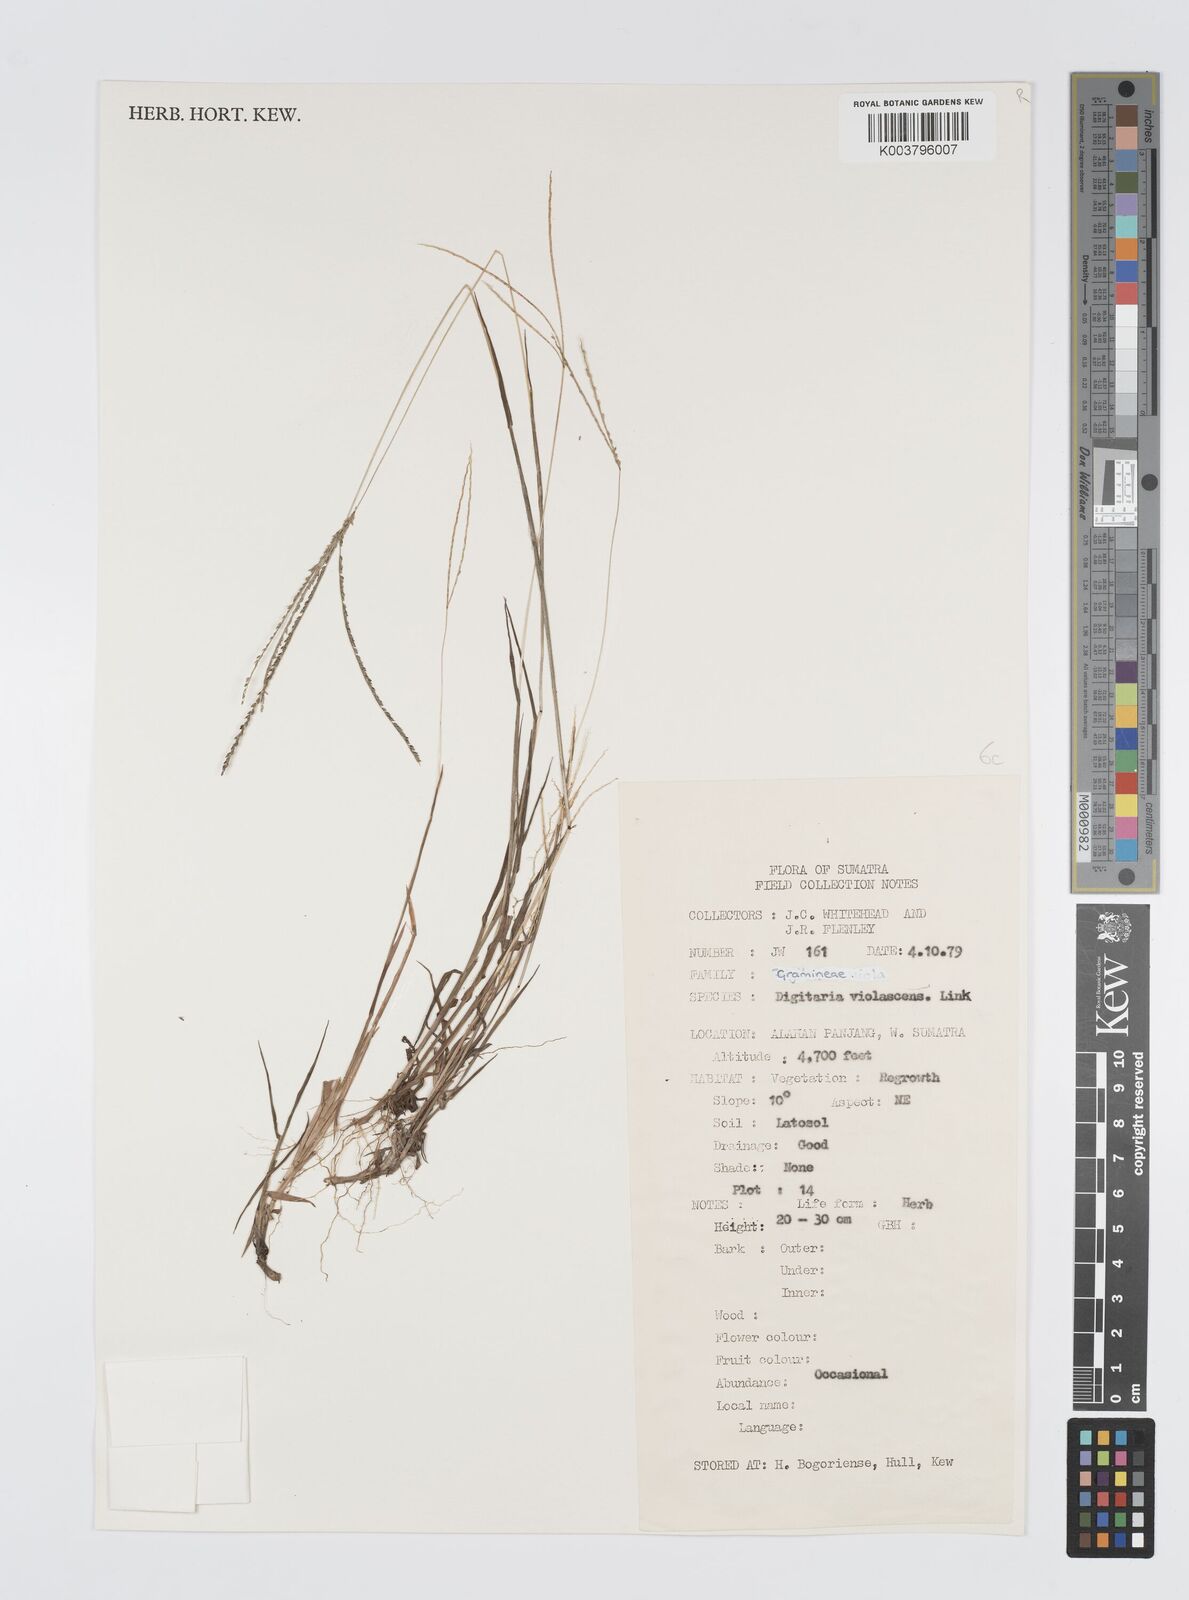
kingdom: Plantae
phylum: Tracheophyta
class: Liliopsida
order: Poales
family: Poaceae
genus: Digitaria
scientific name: Digitaria violascens
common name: Violet crabgrass
